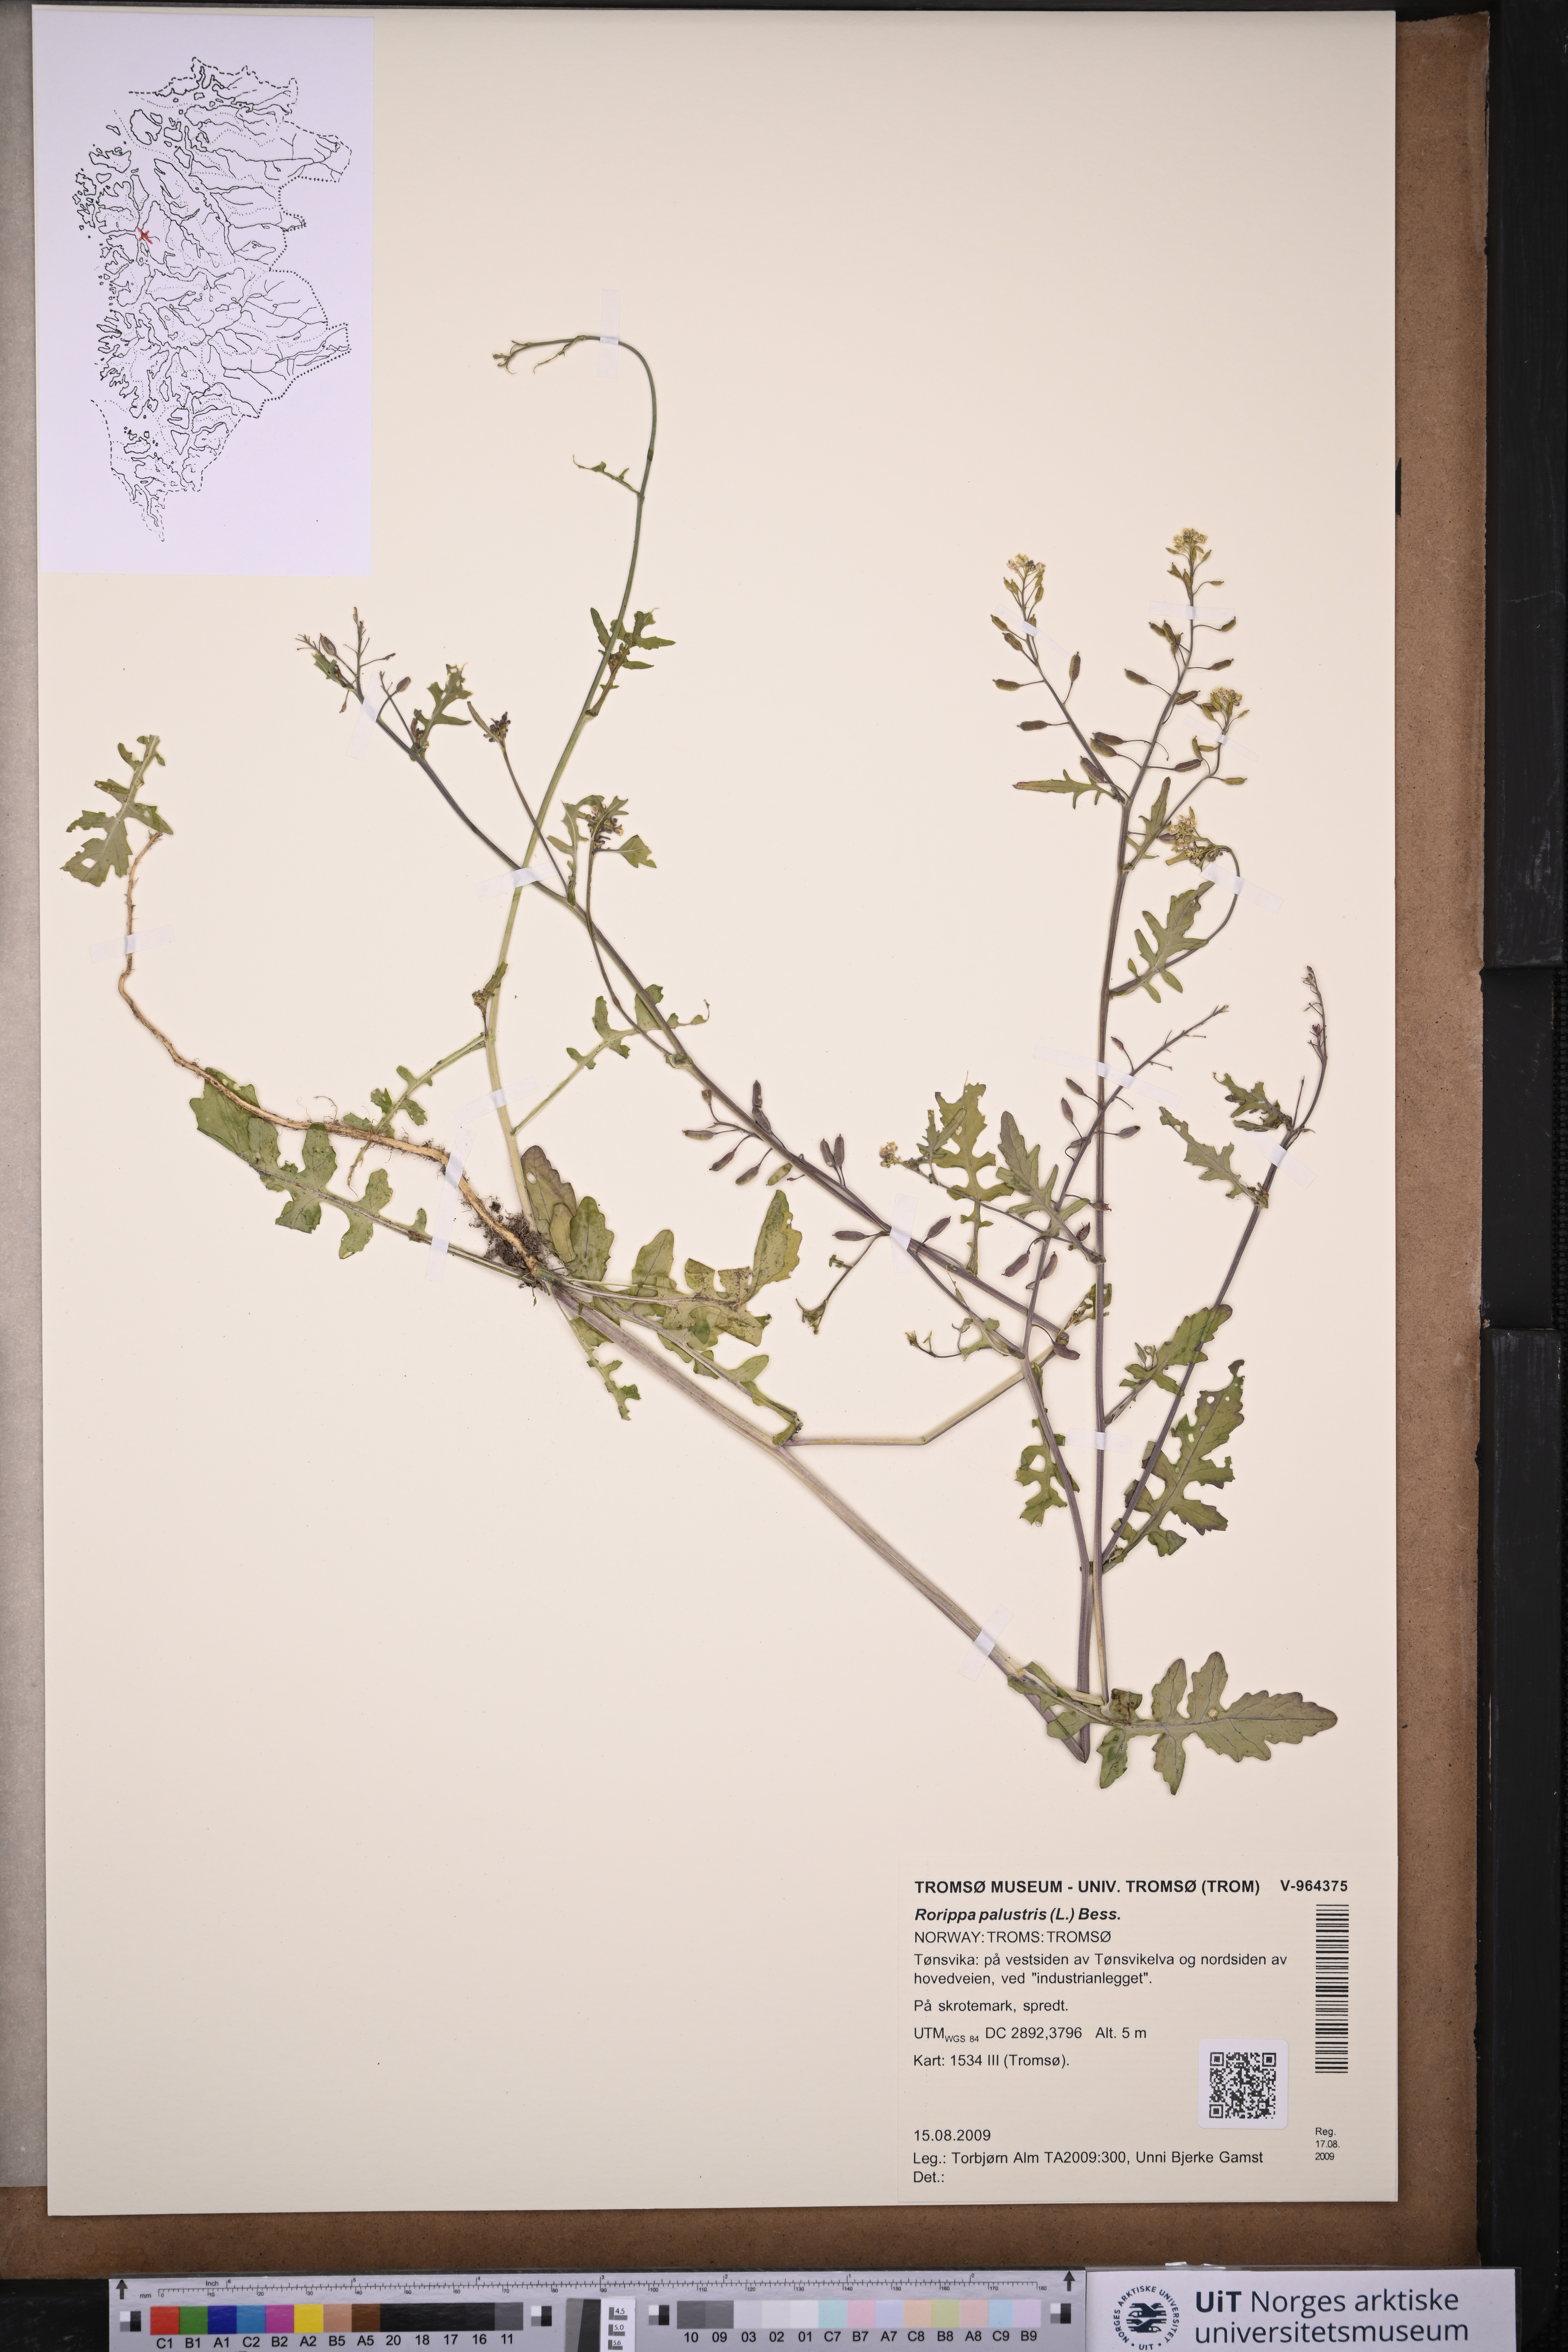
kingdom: Plantae
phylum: Tracheophyta
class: Magnoliopsida
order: Brassicales
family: Brassicaceae
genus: Rorippa
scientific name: Rorippa palustris
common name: Marsh yellow-cress
